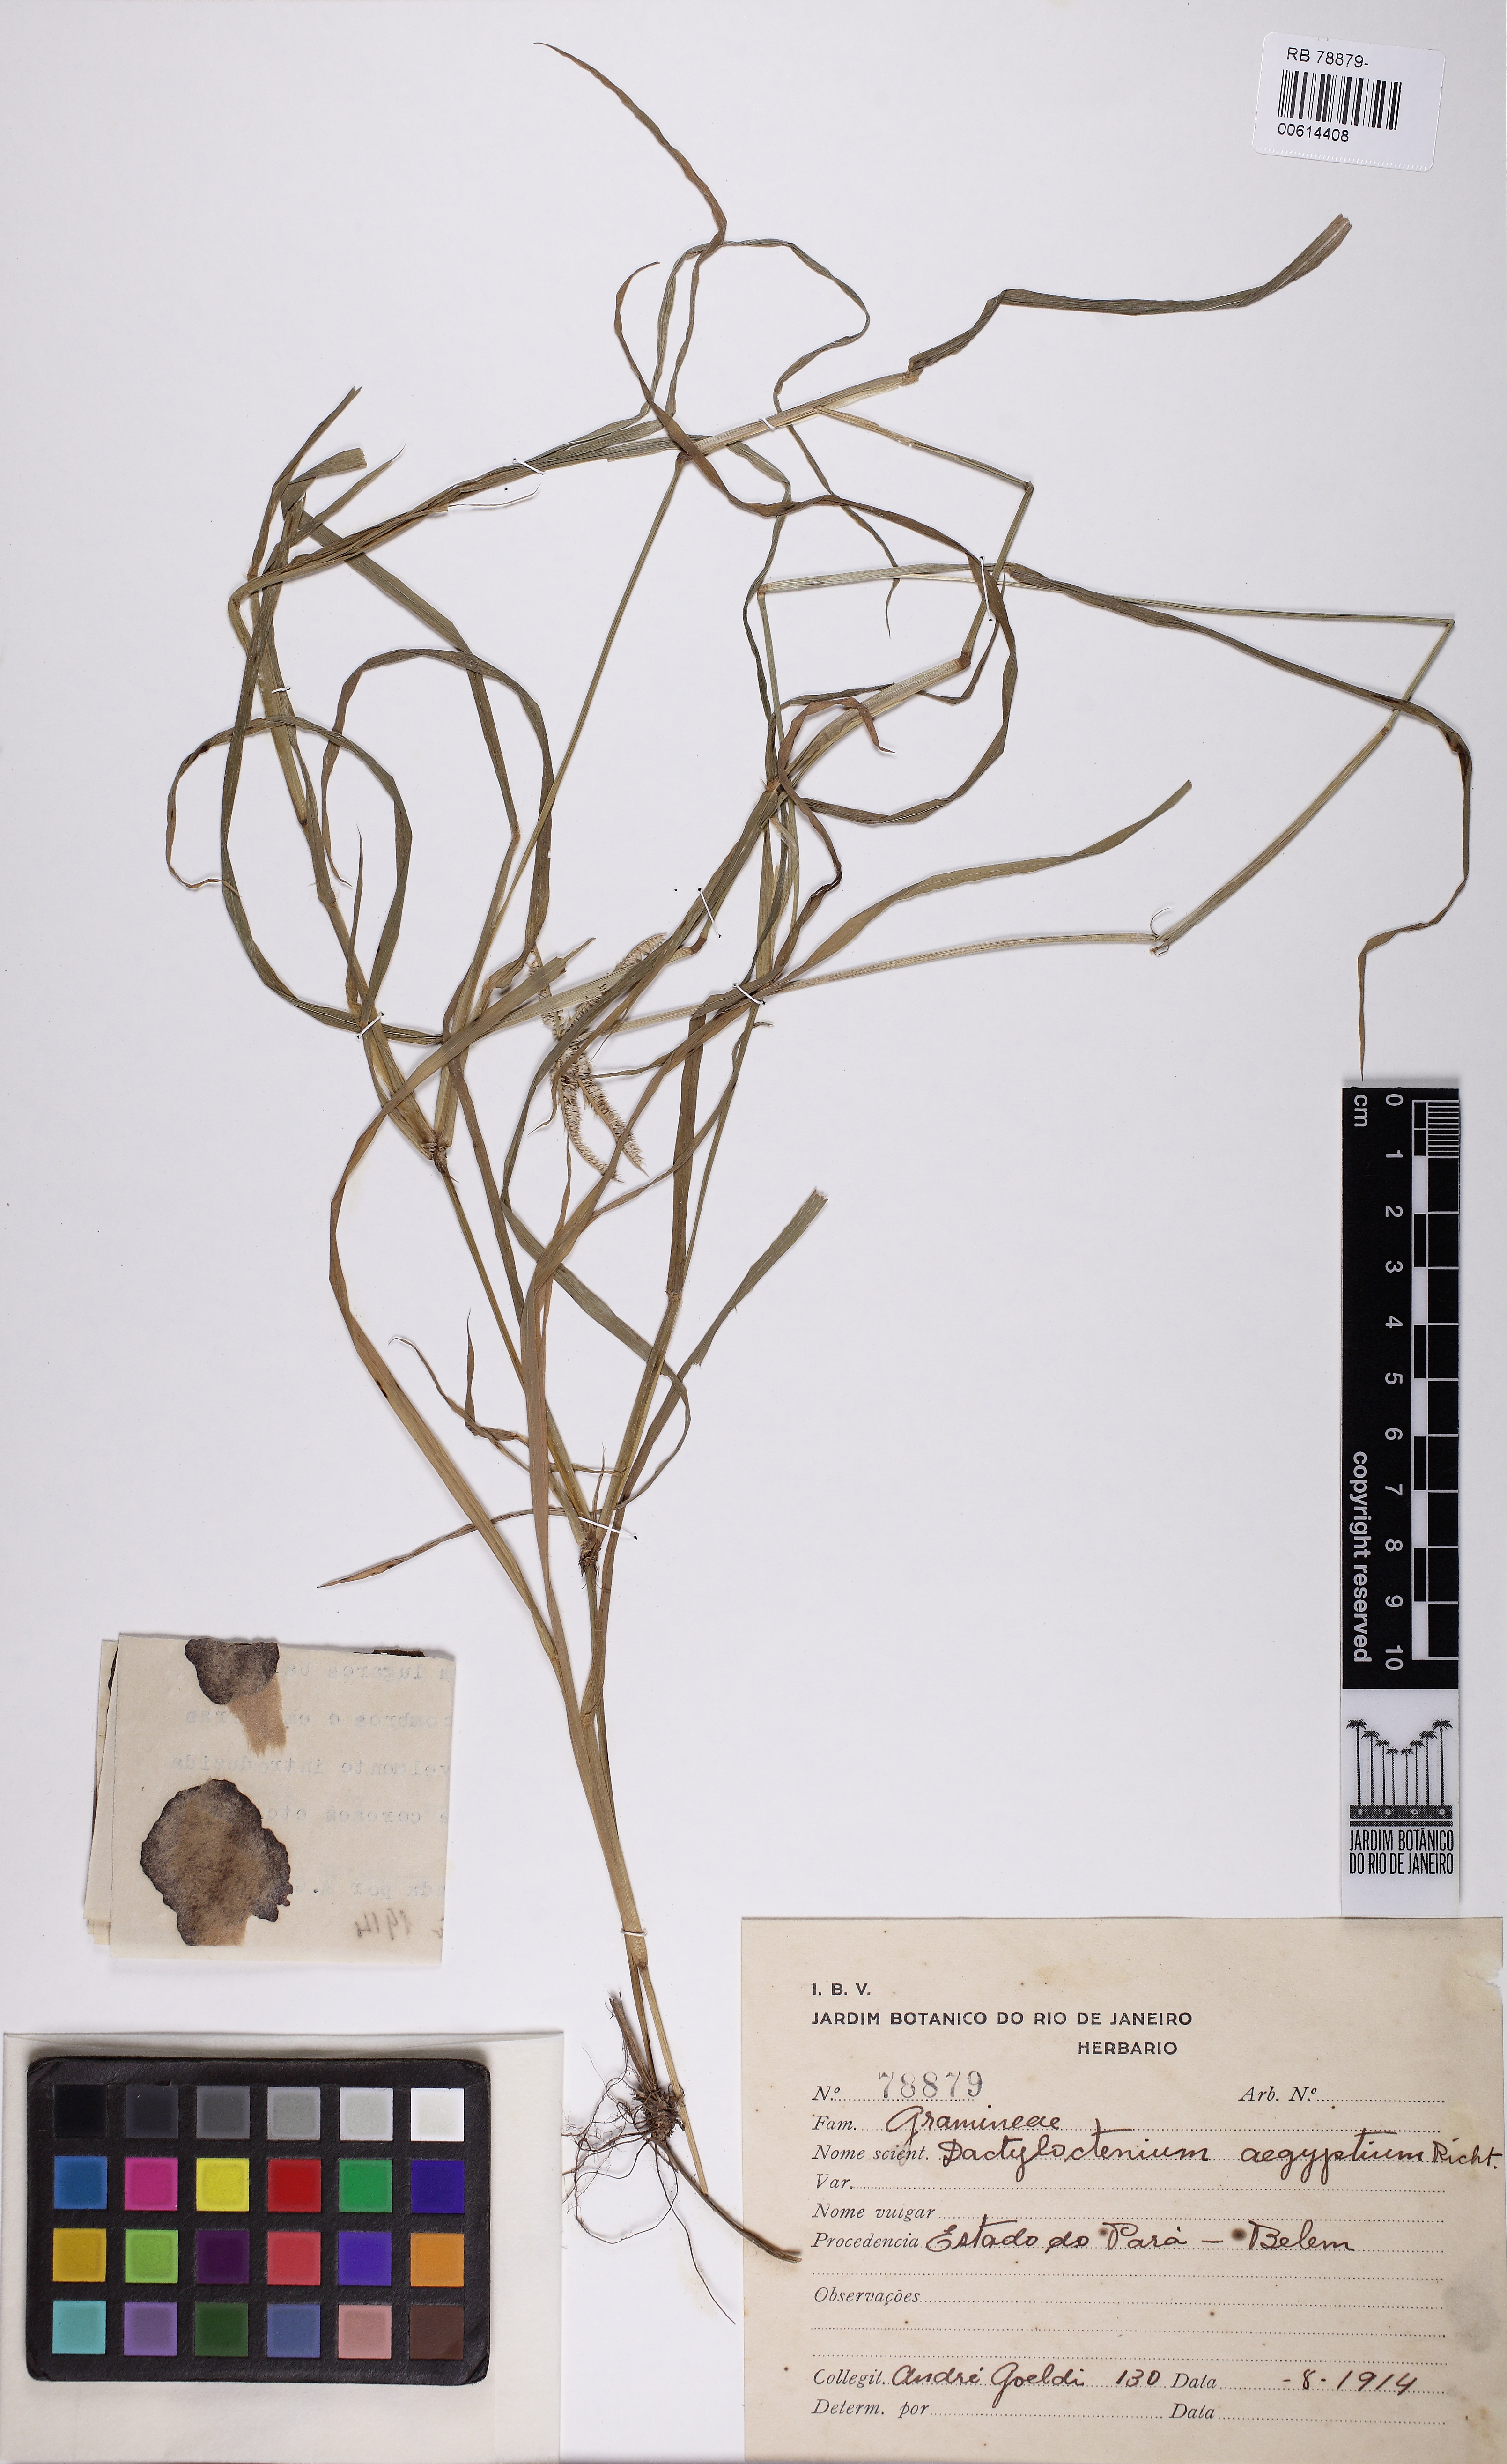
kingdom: Plantae
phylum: Tracheophyta
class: Liliopsida
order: Poales
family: Poaceae
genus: Dactyloctenium
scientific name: Dactyloctenium aegyptium
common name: Egyptian grass
